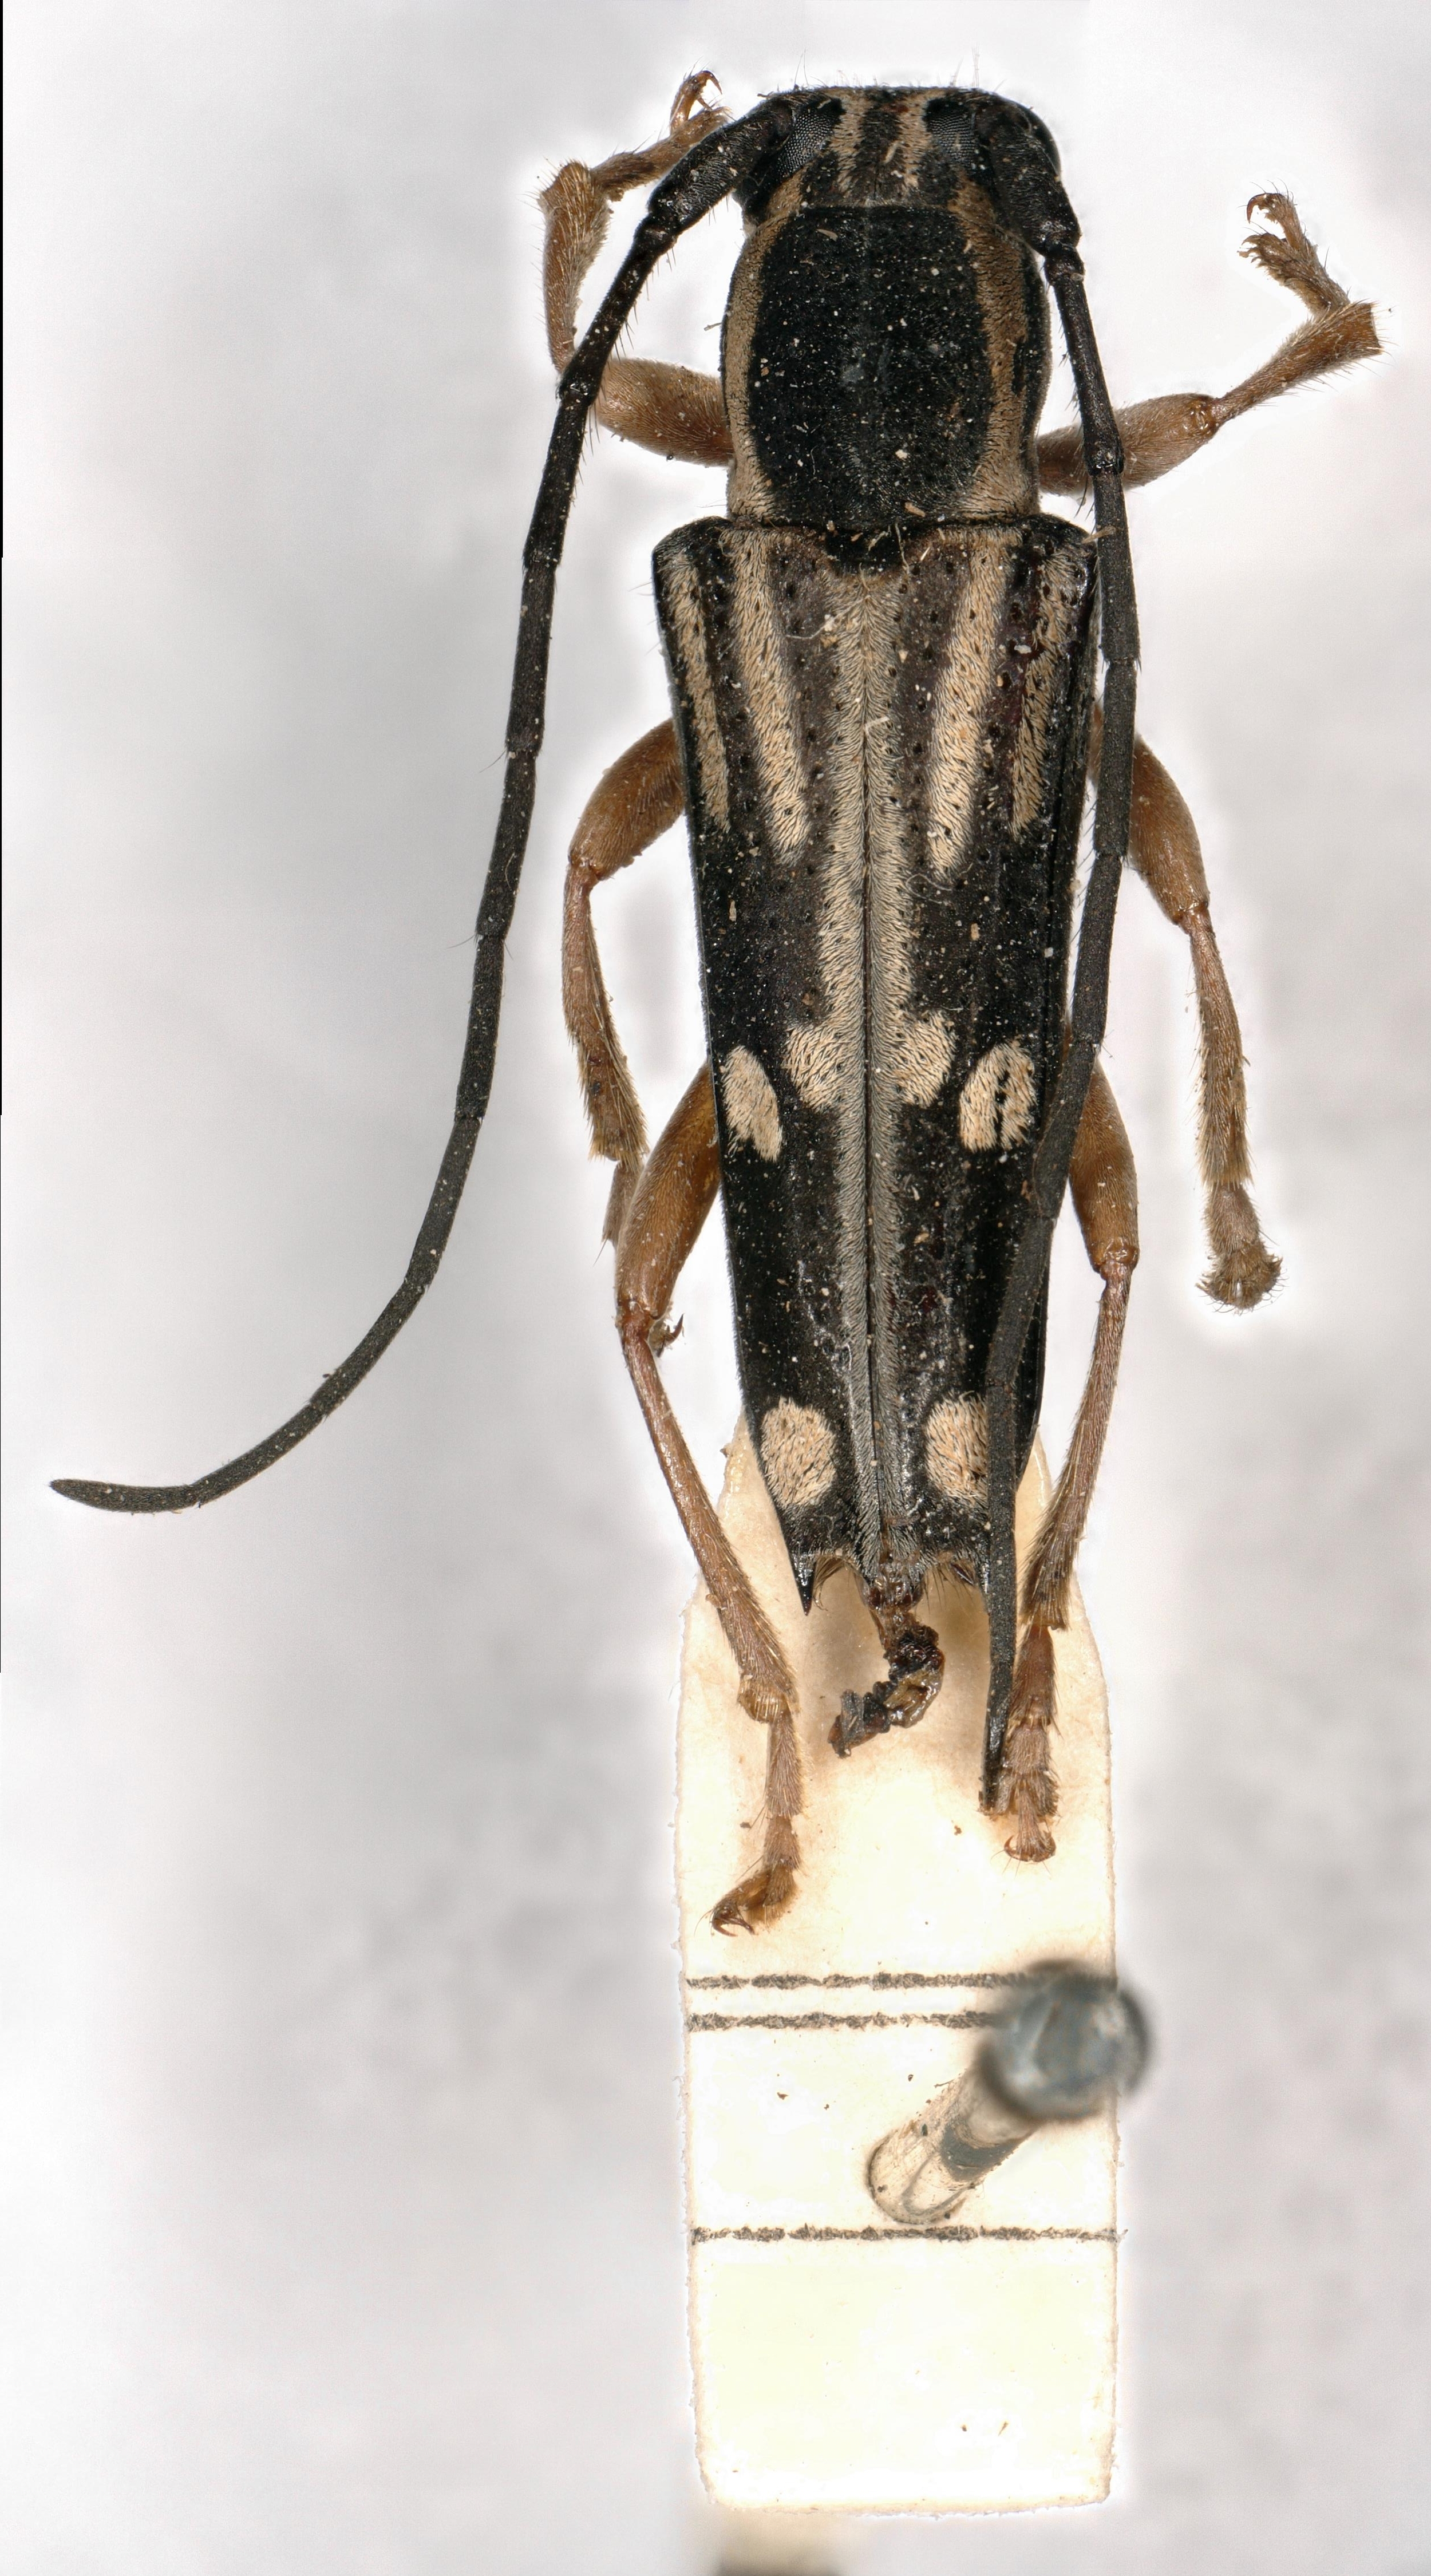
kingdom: Animalia
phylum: Arthropoda
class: Insecta
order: Coleoptera
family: Cerambycidae
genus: Glenea
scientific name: Glenea johnstoni
